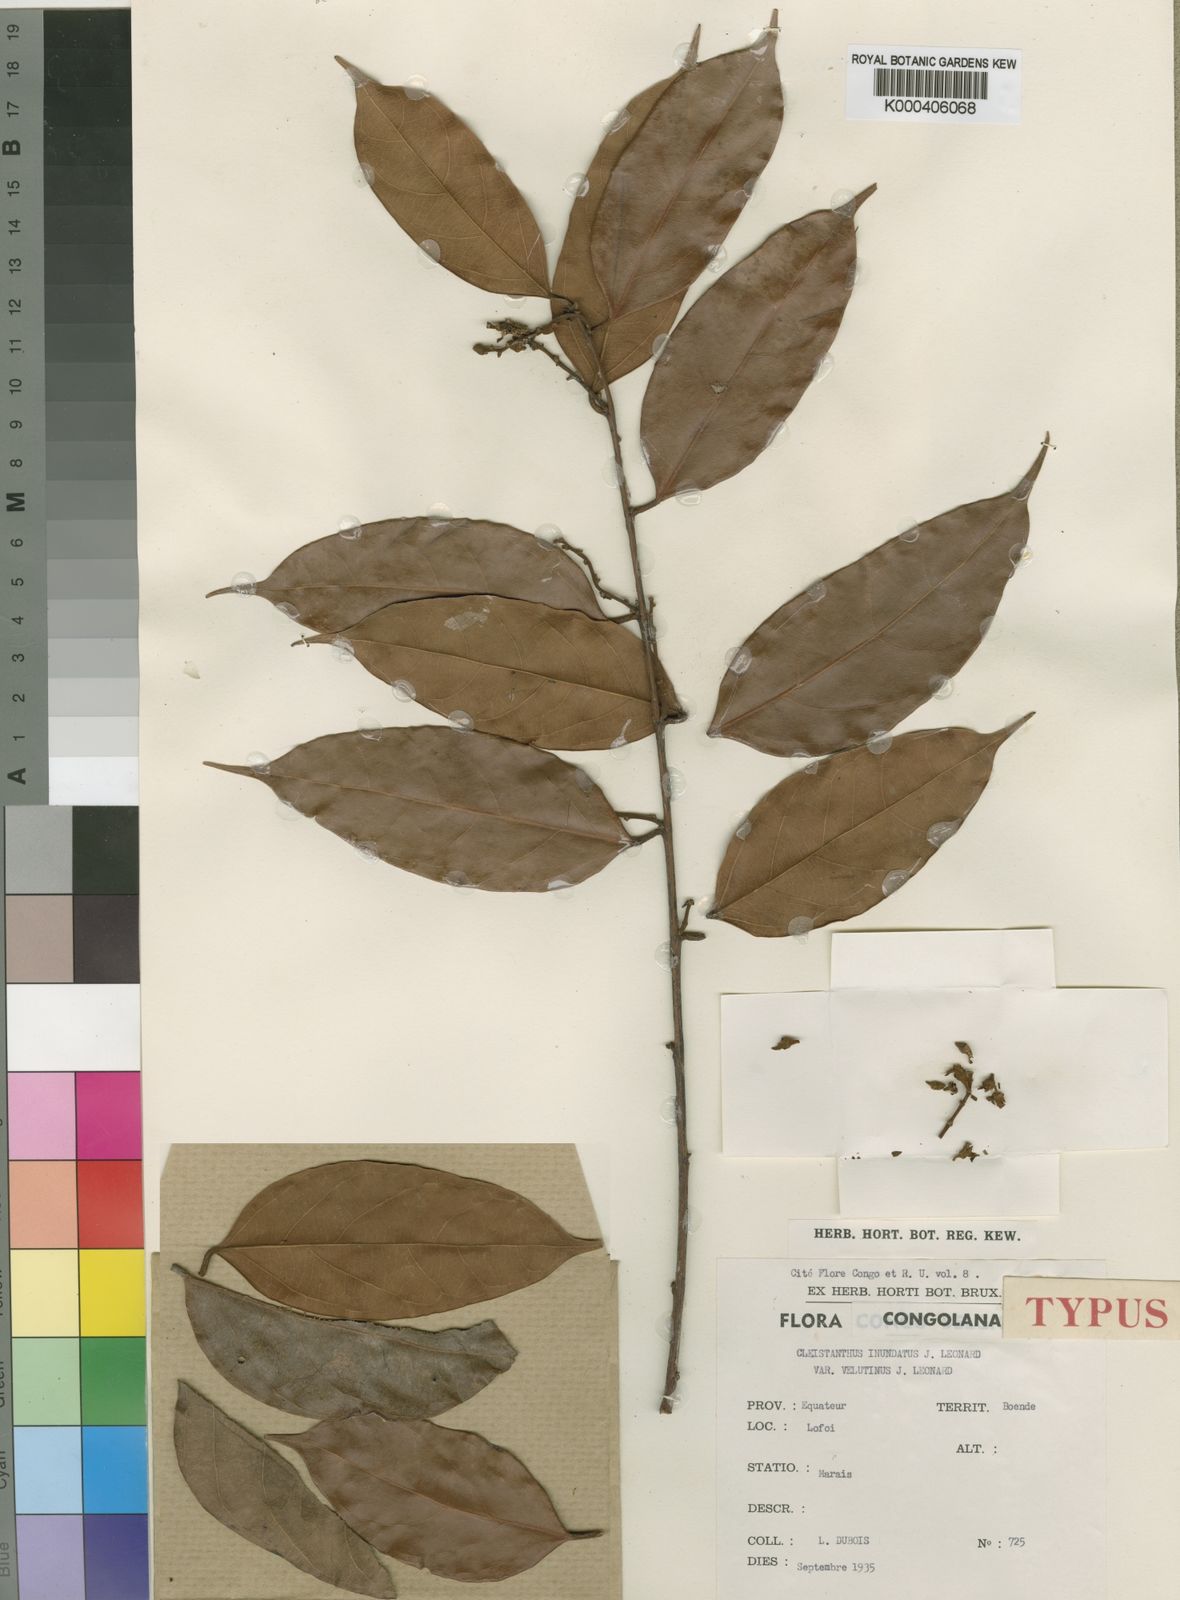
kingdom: Plantae
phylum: Tracheophyta
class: Magnoliopsida
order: Malpighiales
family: Phyllanthaceae
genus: Cleistanthus
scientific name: Cleistanthus
